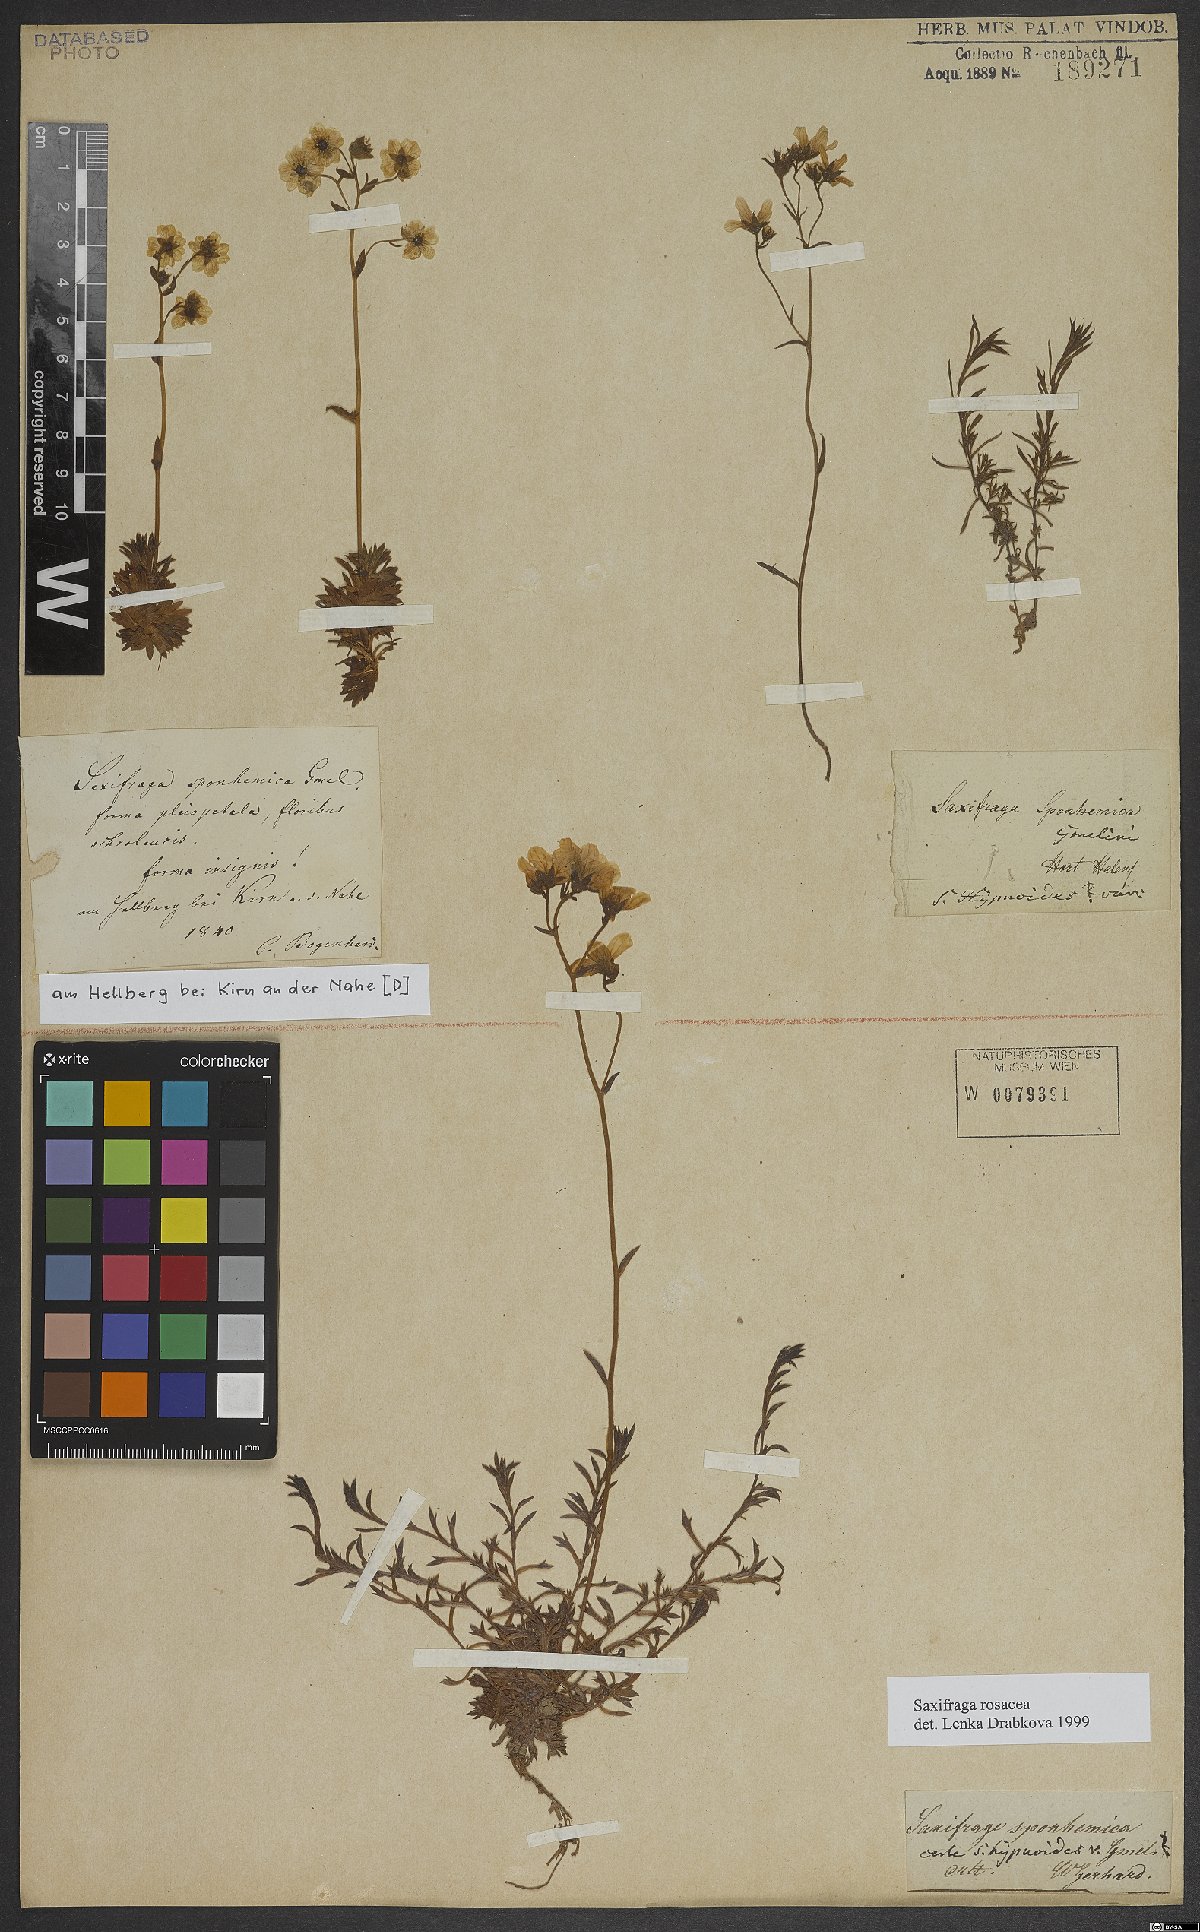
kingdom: Plantae
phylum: Tracheophyta
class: Magnoliopsida
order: Saxifragales
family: Saxifragaceae
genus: Saxifraga
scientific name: Saxifraga rosacea
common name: Irish saxifrage
